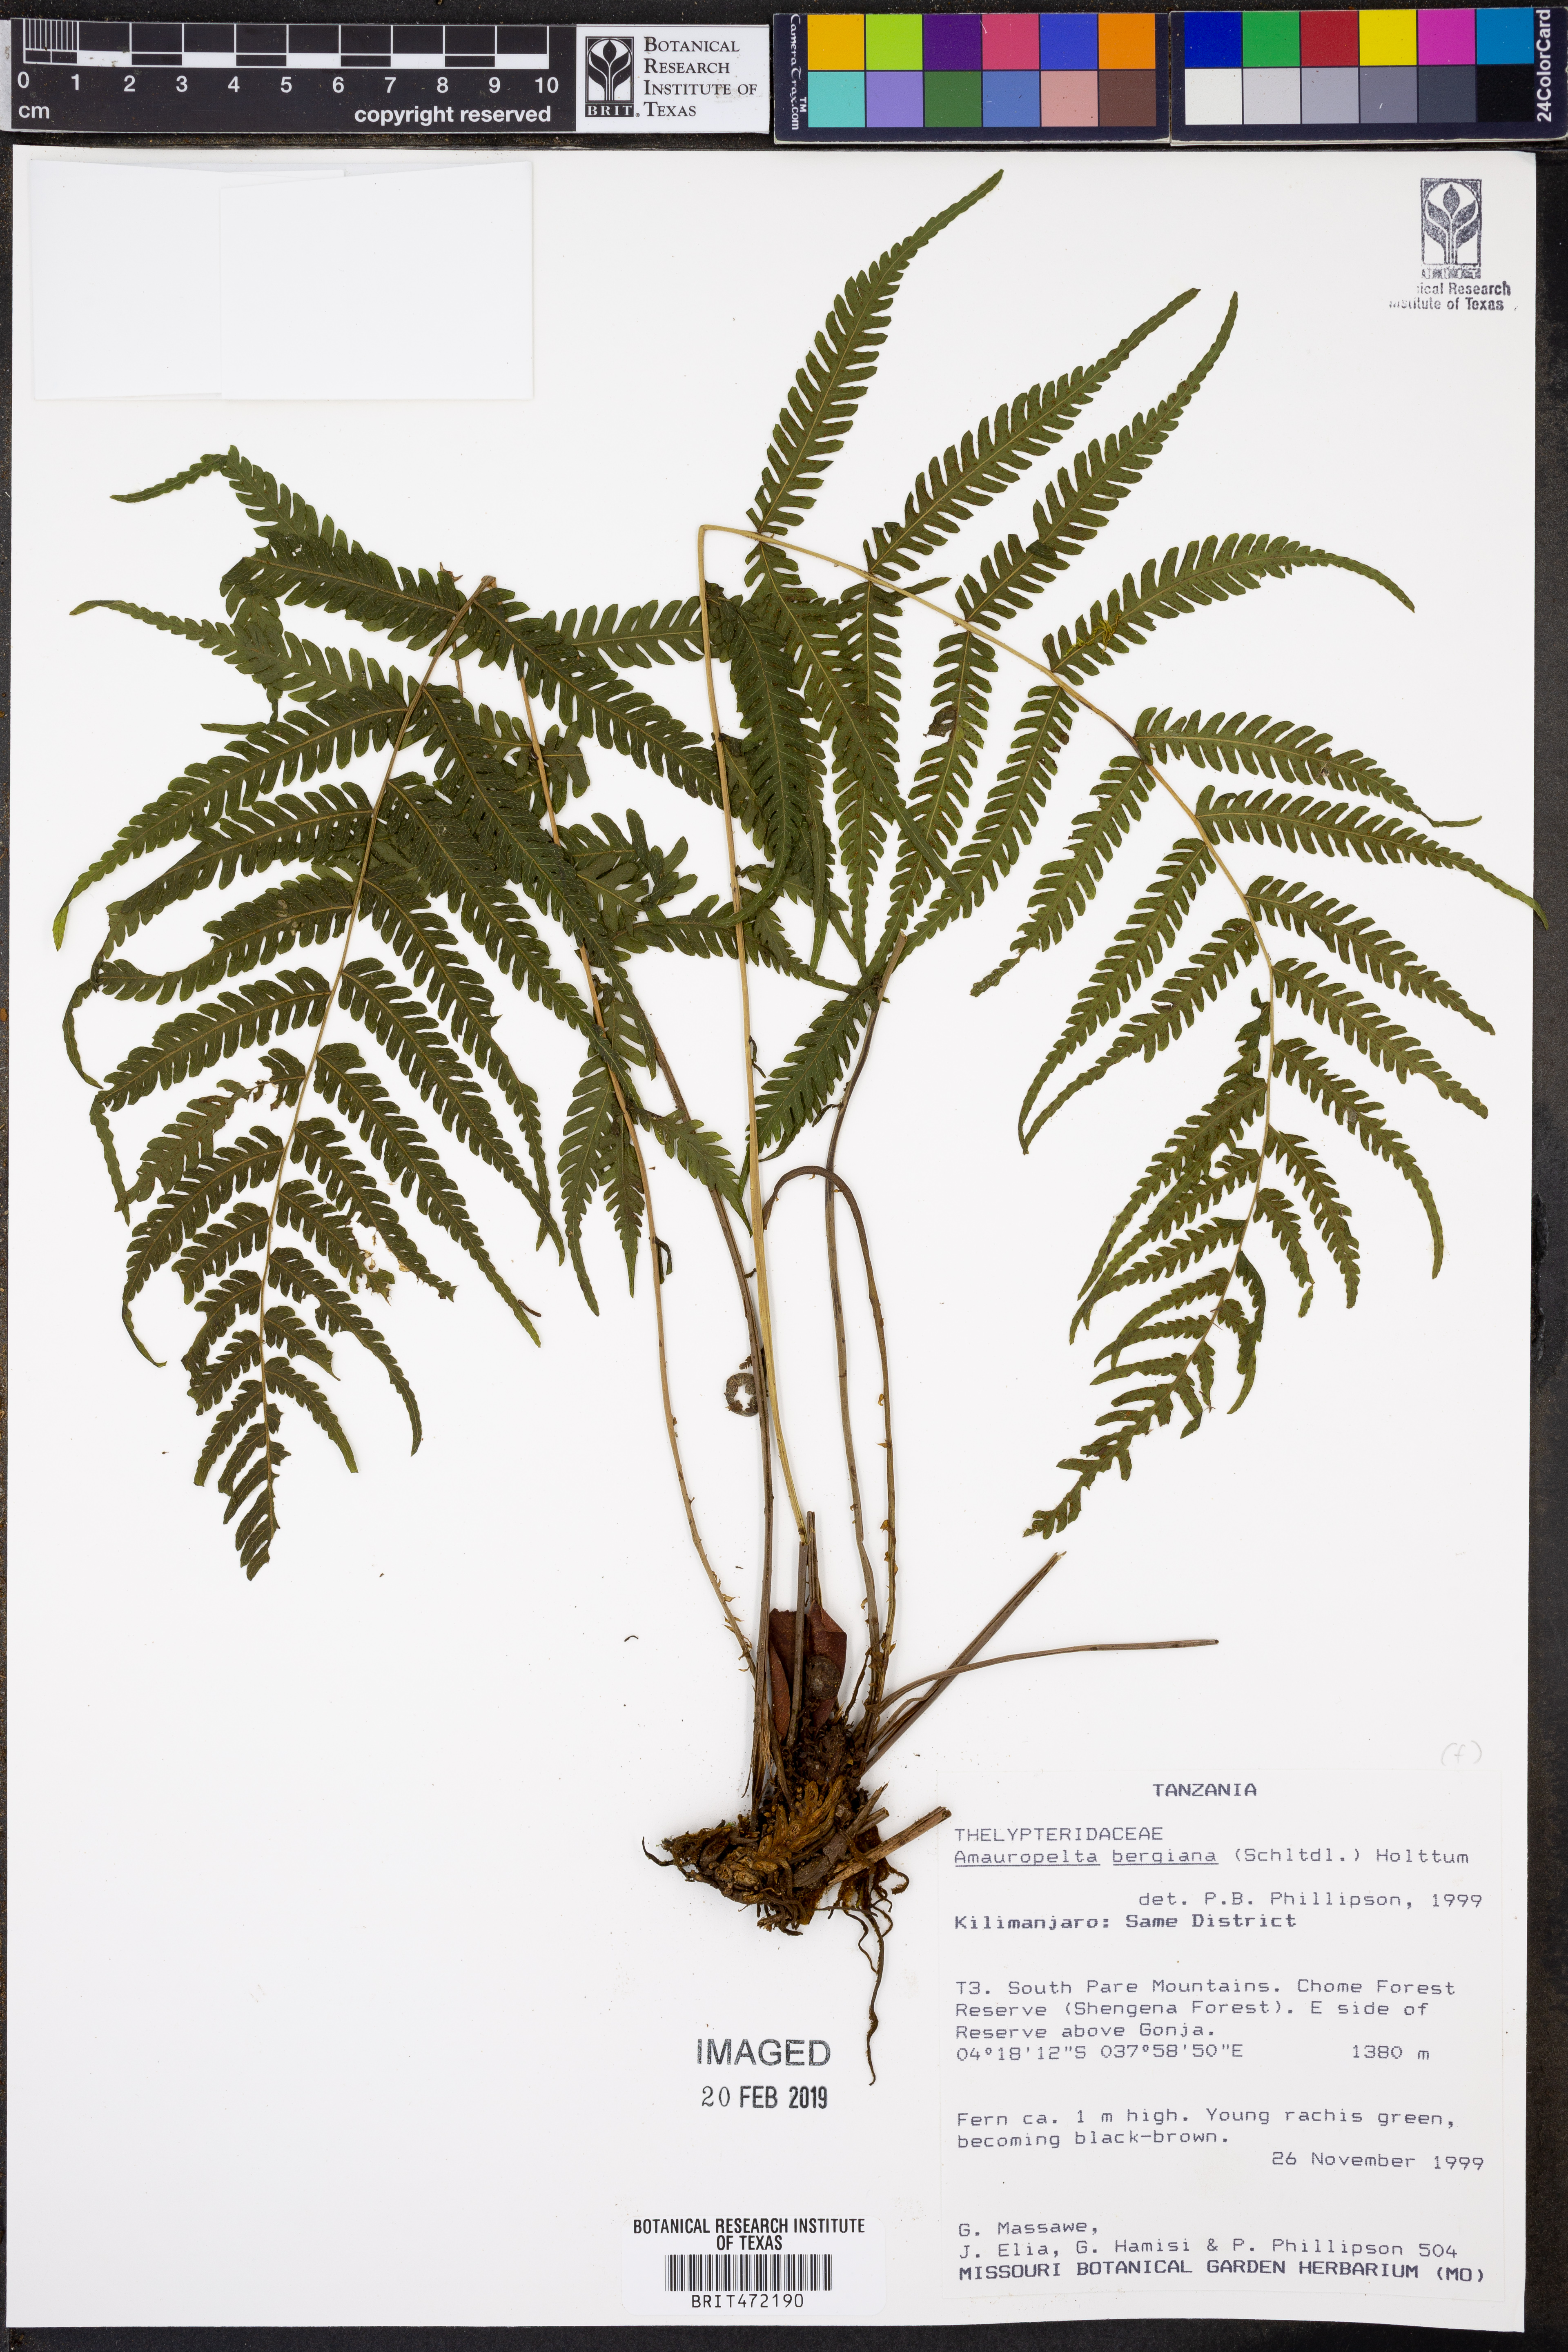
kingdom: Plantae
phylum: Tracheophyta
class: Polypodiopsida
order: Polypodiales
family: Thelypteridaceae
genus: Amauropelta
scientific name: Amauropelta bergiana
